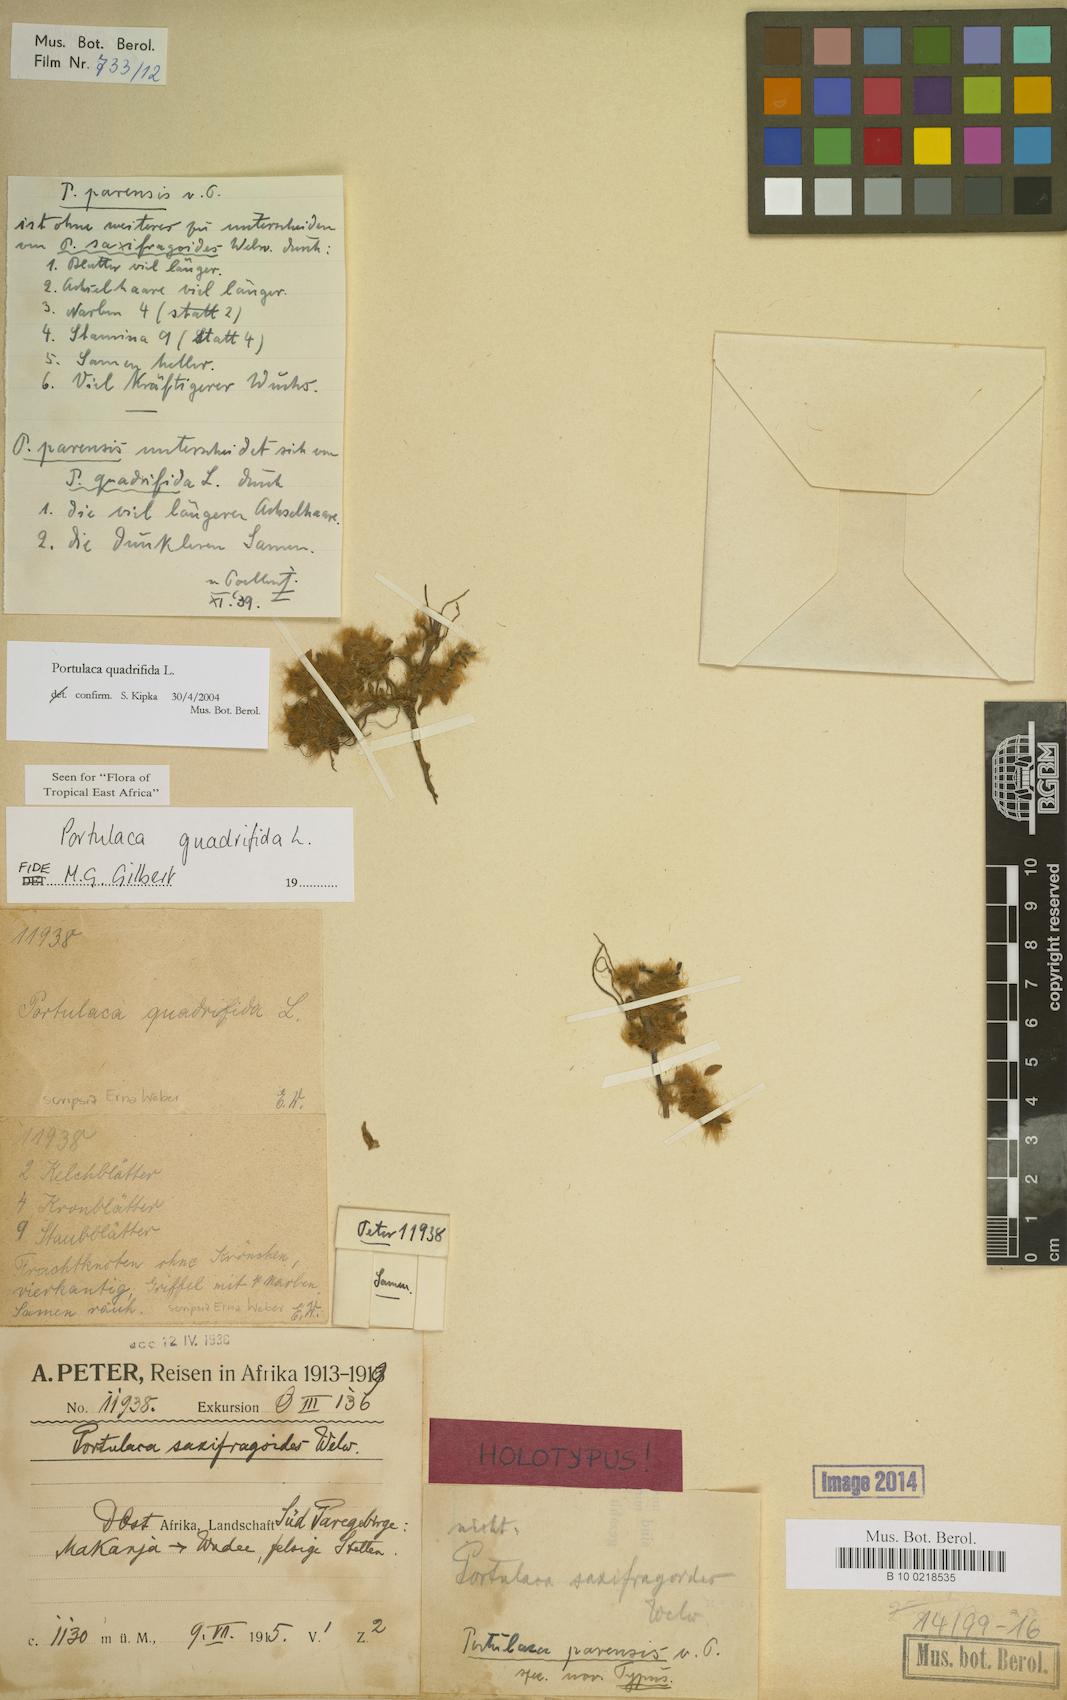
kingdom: Plantae
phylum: Tracheophyta
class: Magnoliopsida
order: Caryophyllales
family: Portulacaceae
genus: Portulaca
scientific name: Portulaca quadrifida
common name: Chickenweed
